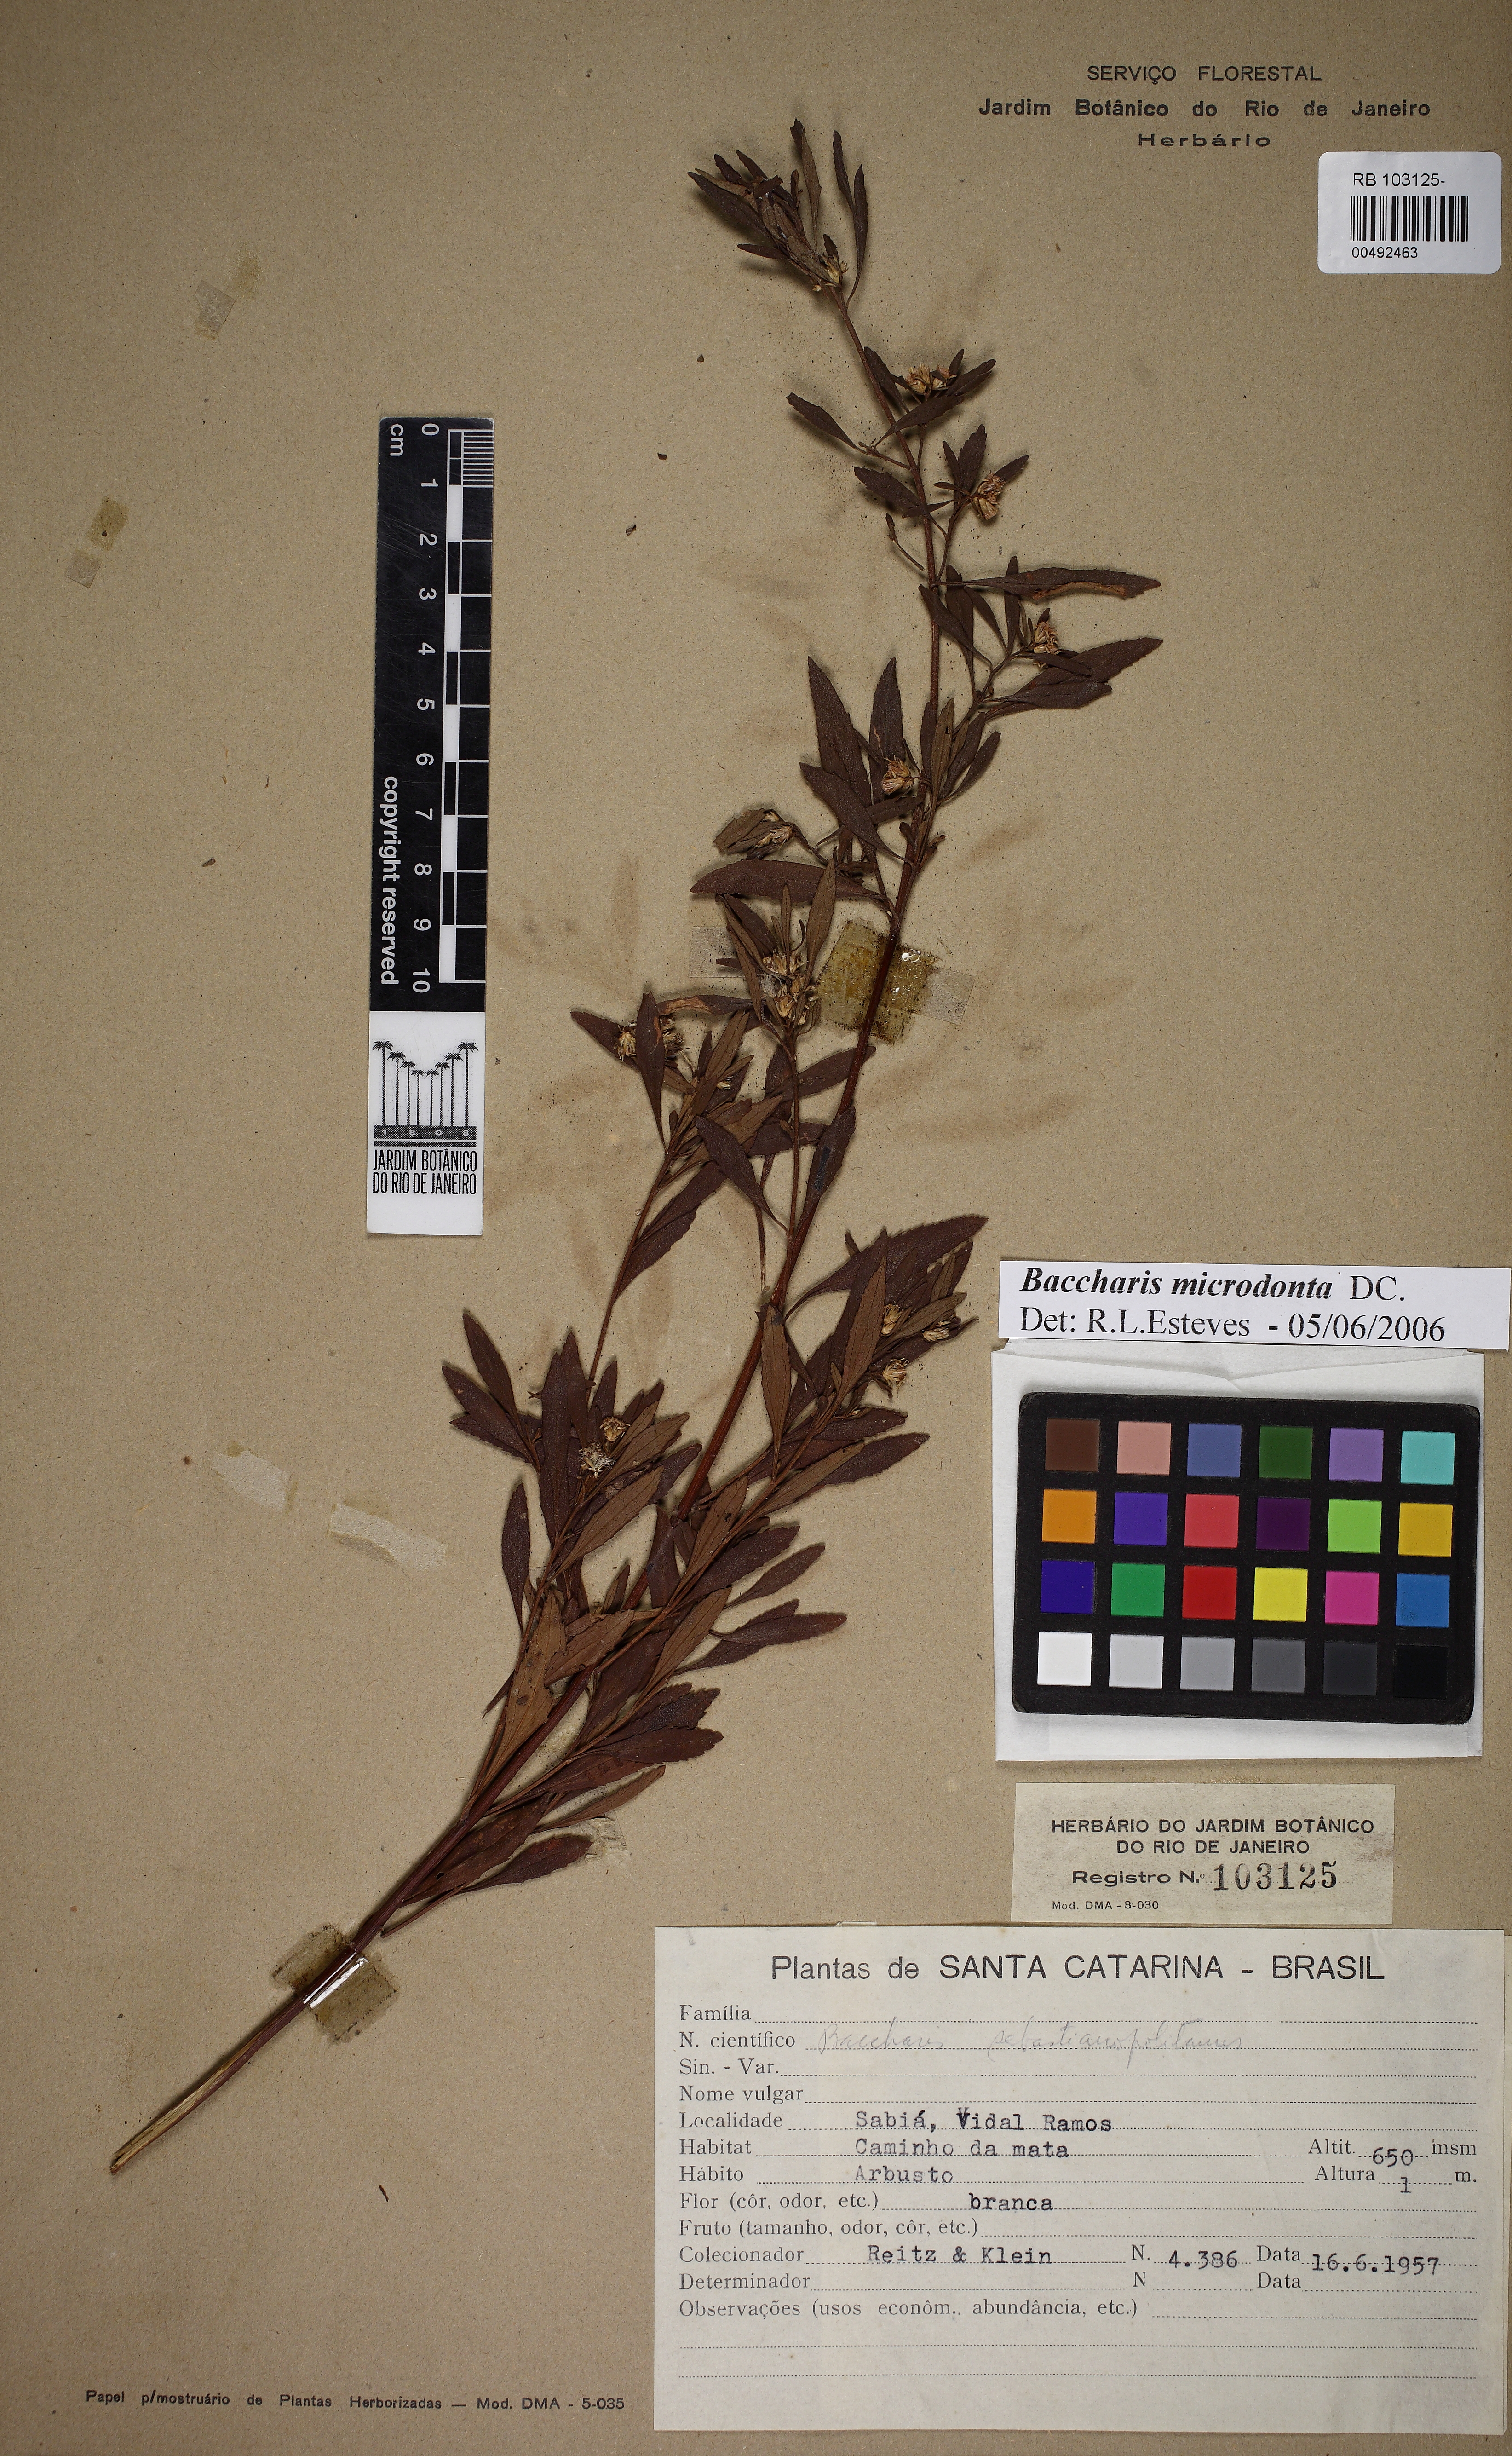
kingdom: Plantae
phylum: Tracheophyta
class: Magnoliopsida
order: Asterales
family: Asteraceae
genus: Baccharis
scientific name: Baccharis microdonta
